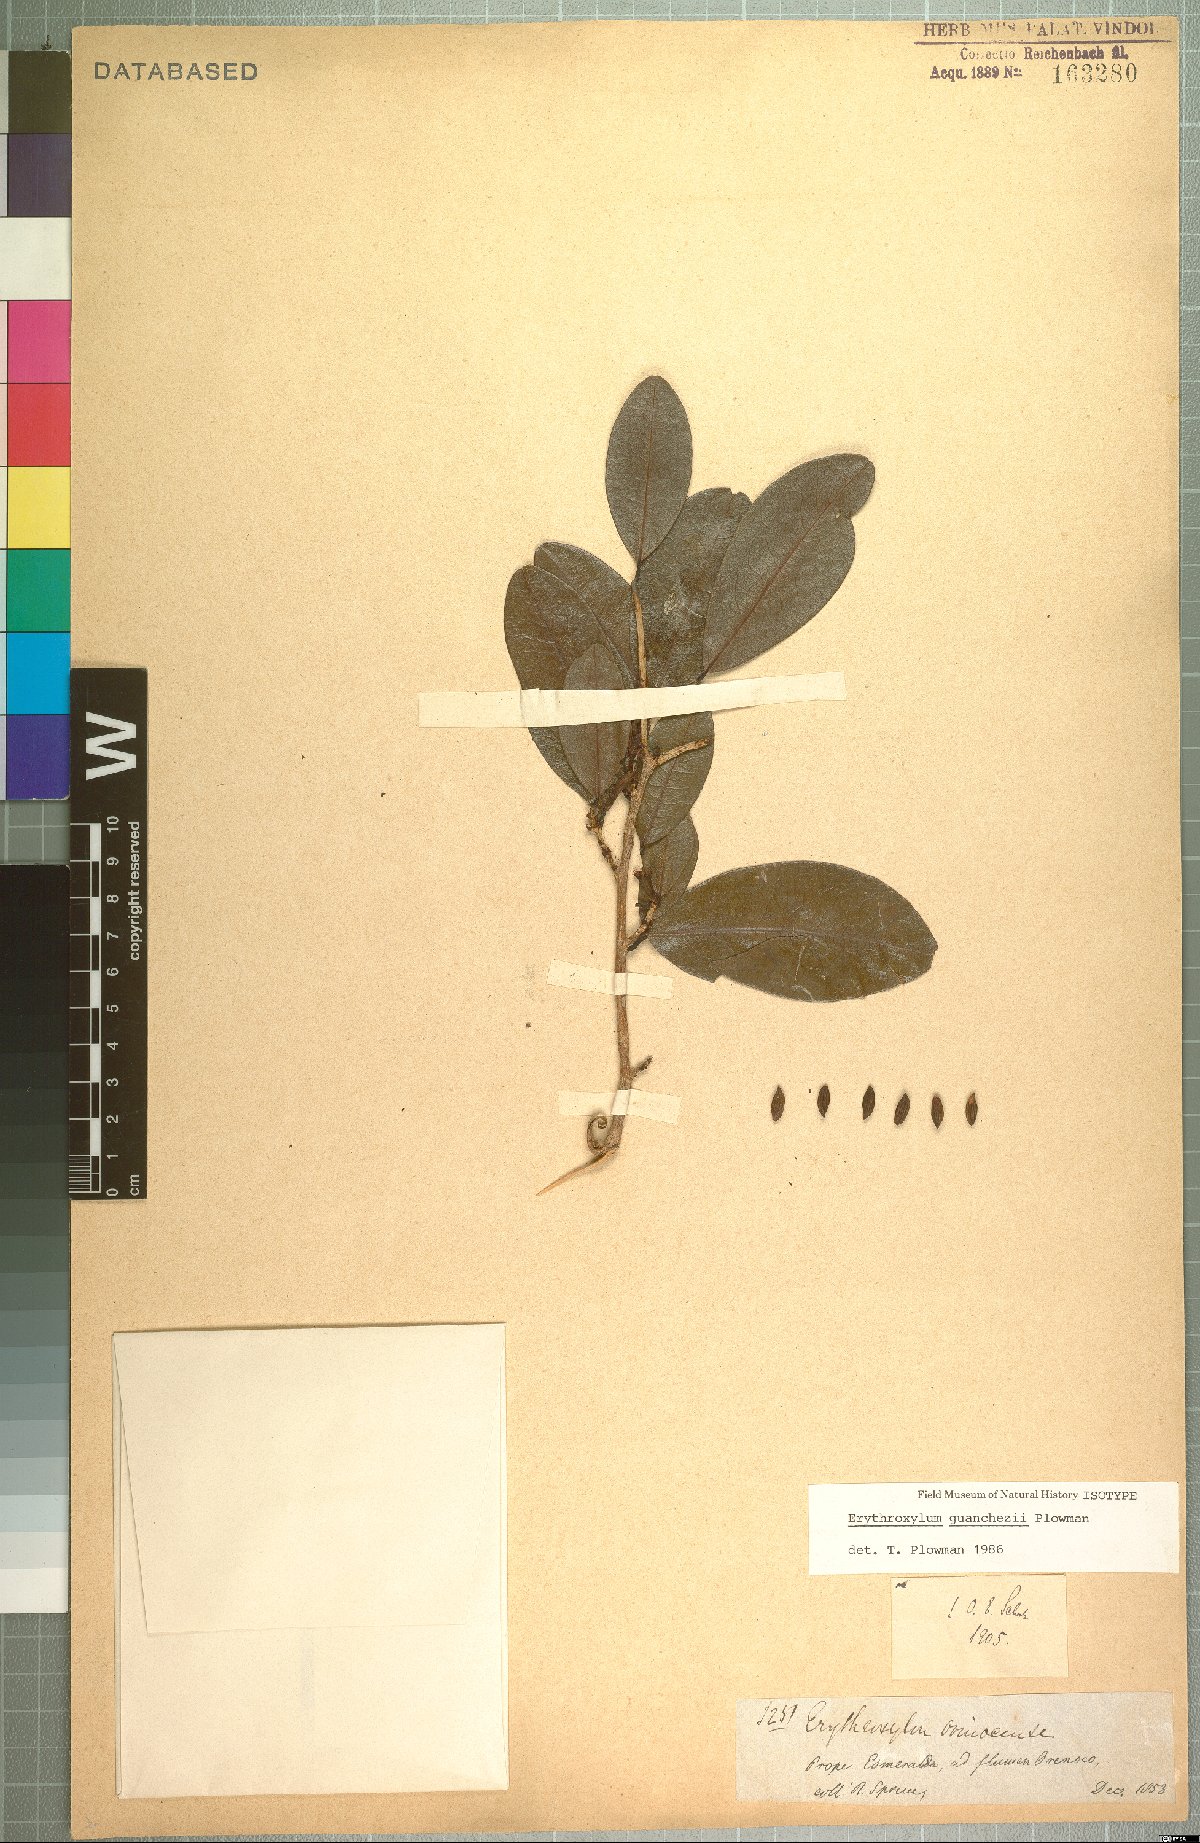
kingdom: Plantae
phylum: Tracheophyta
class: Magnoliopsida
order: Malpighiales
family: Erythroxylaceae
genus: Erythroxylum
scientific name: Erythroxylum guanchezii
